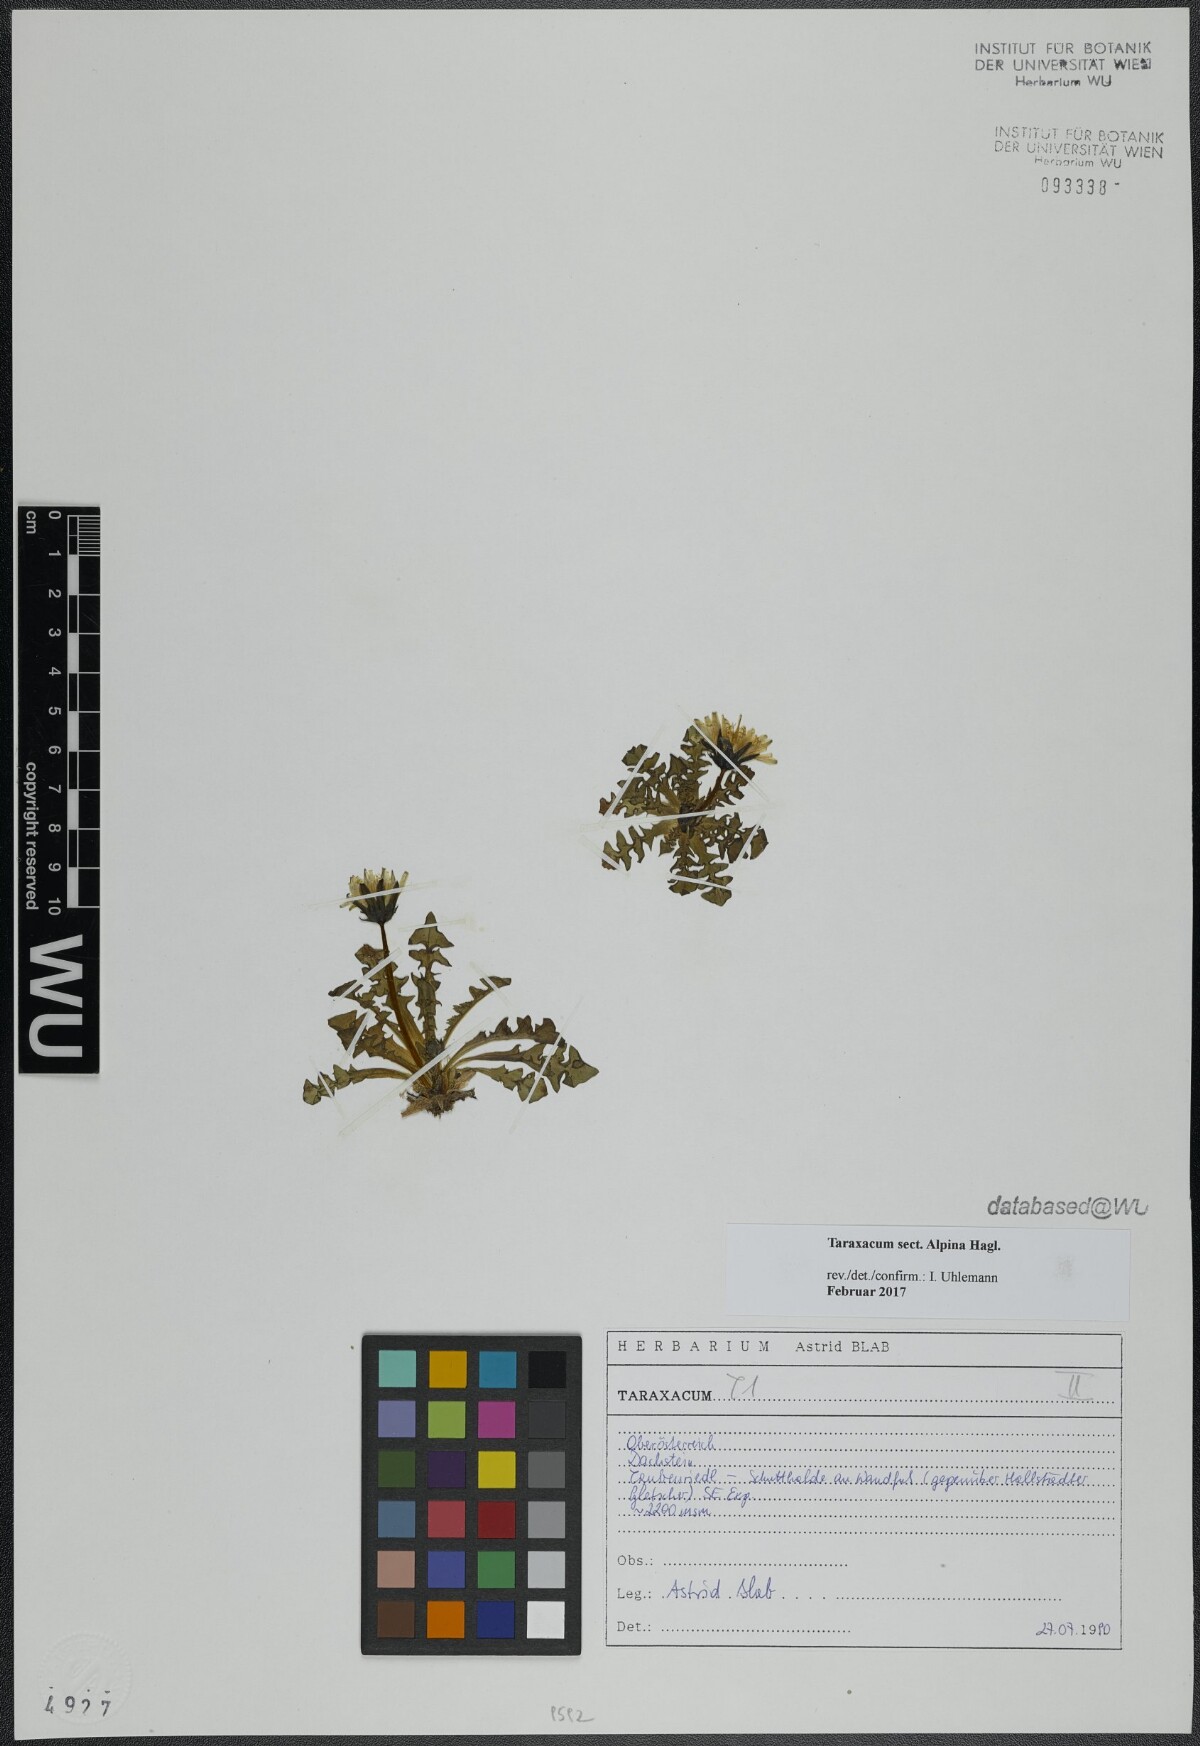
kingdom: Plantae
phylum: Tracheophyta
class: Magnoliopsida
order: Asterales
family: Asteraceae
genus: Taraxacum
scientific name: Taraxacum
